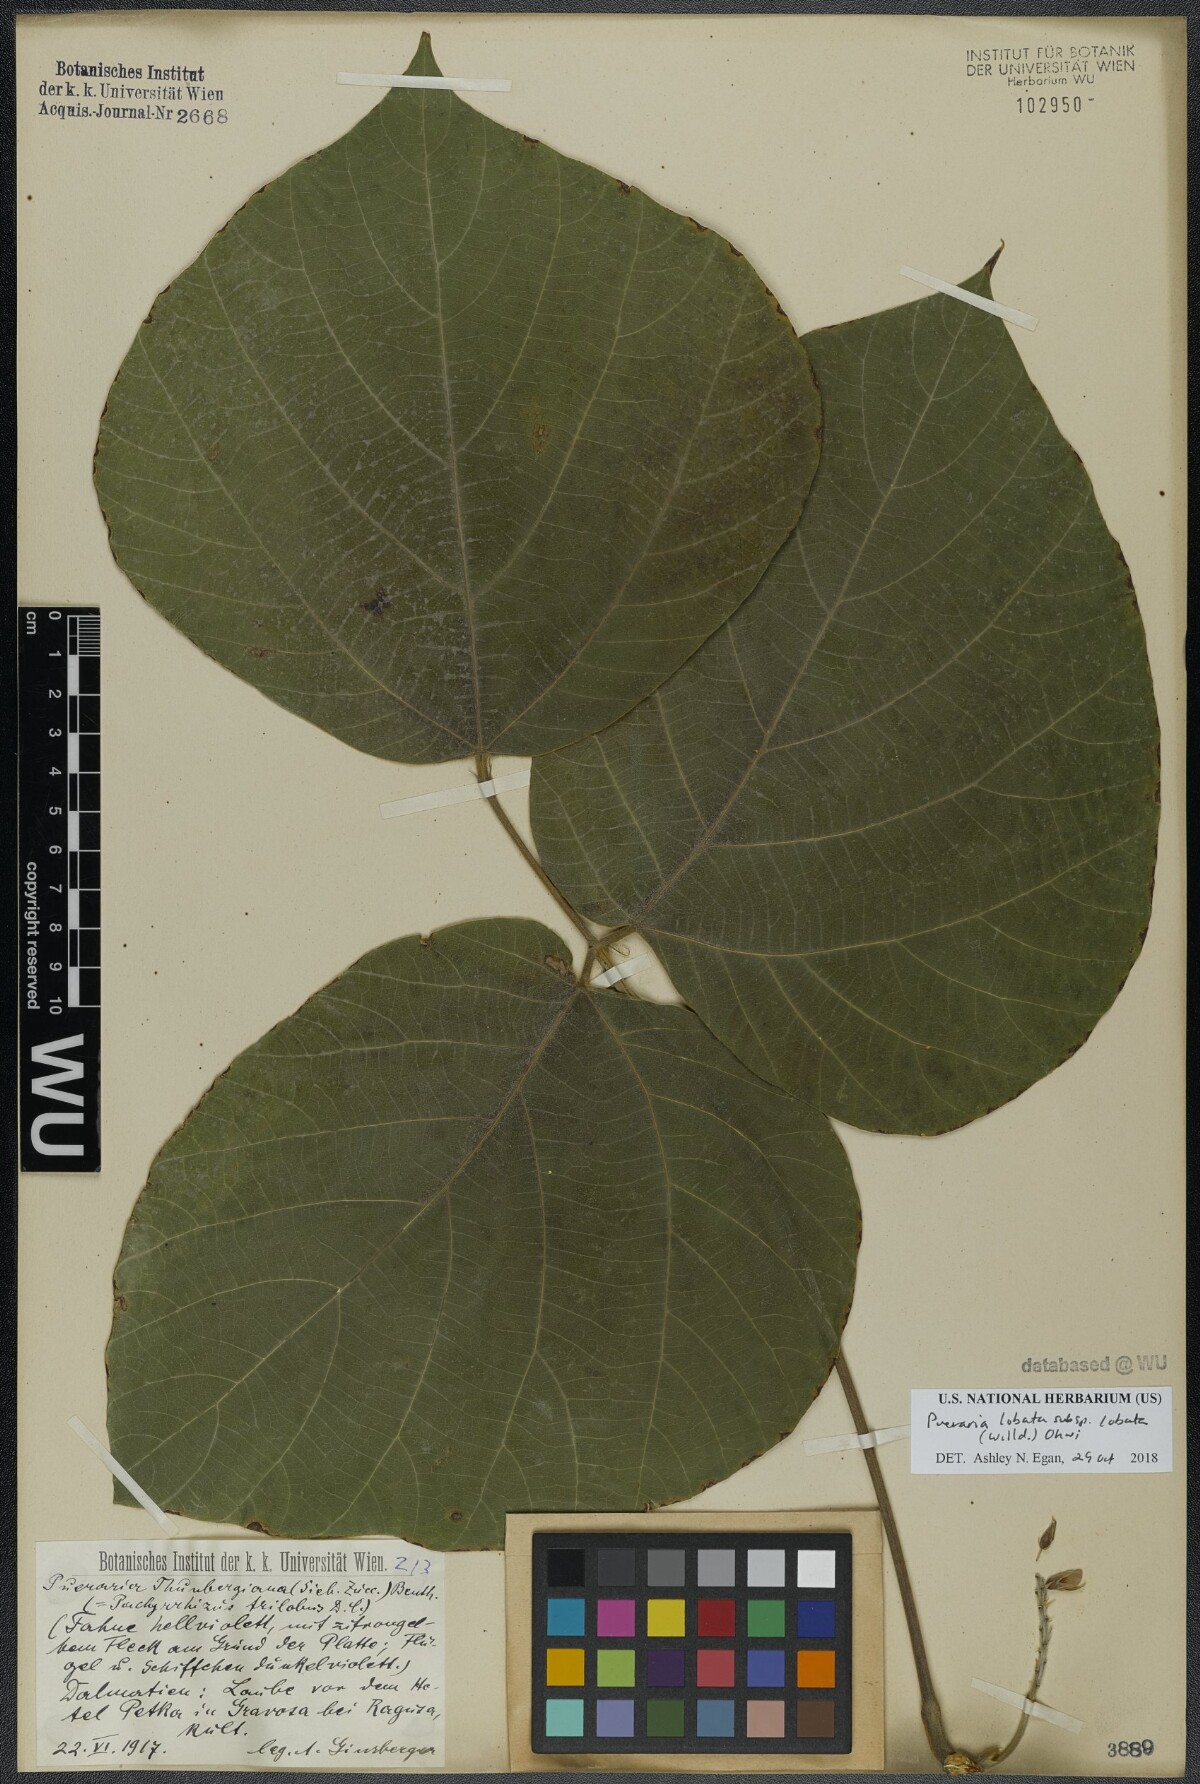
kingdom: Plantae
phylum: Tracheophyta
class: Magnoliopsida
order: Fabales
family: Fabaceae
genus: Pueraria
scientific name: Pueraria montana
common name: Kudzu
